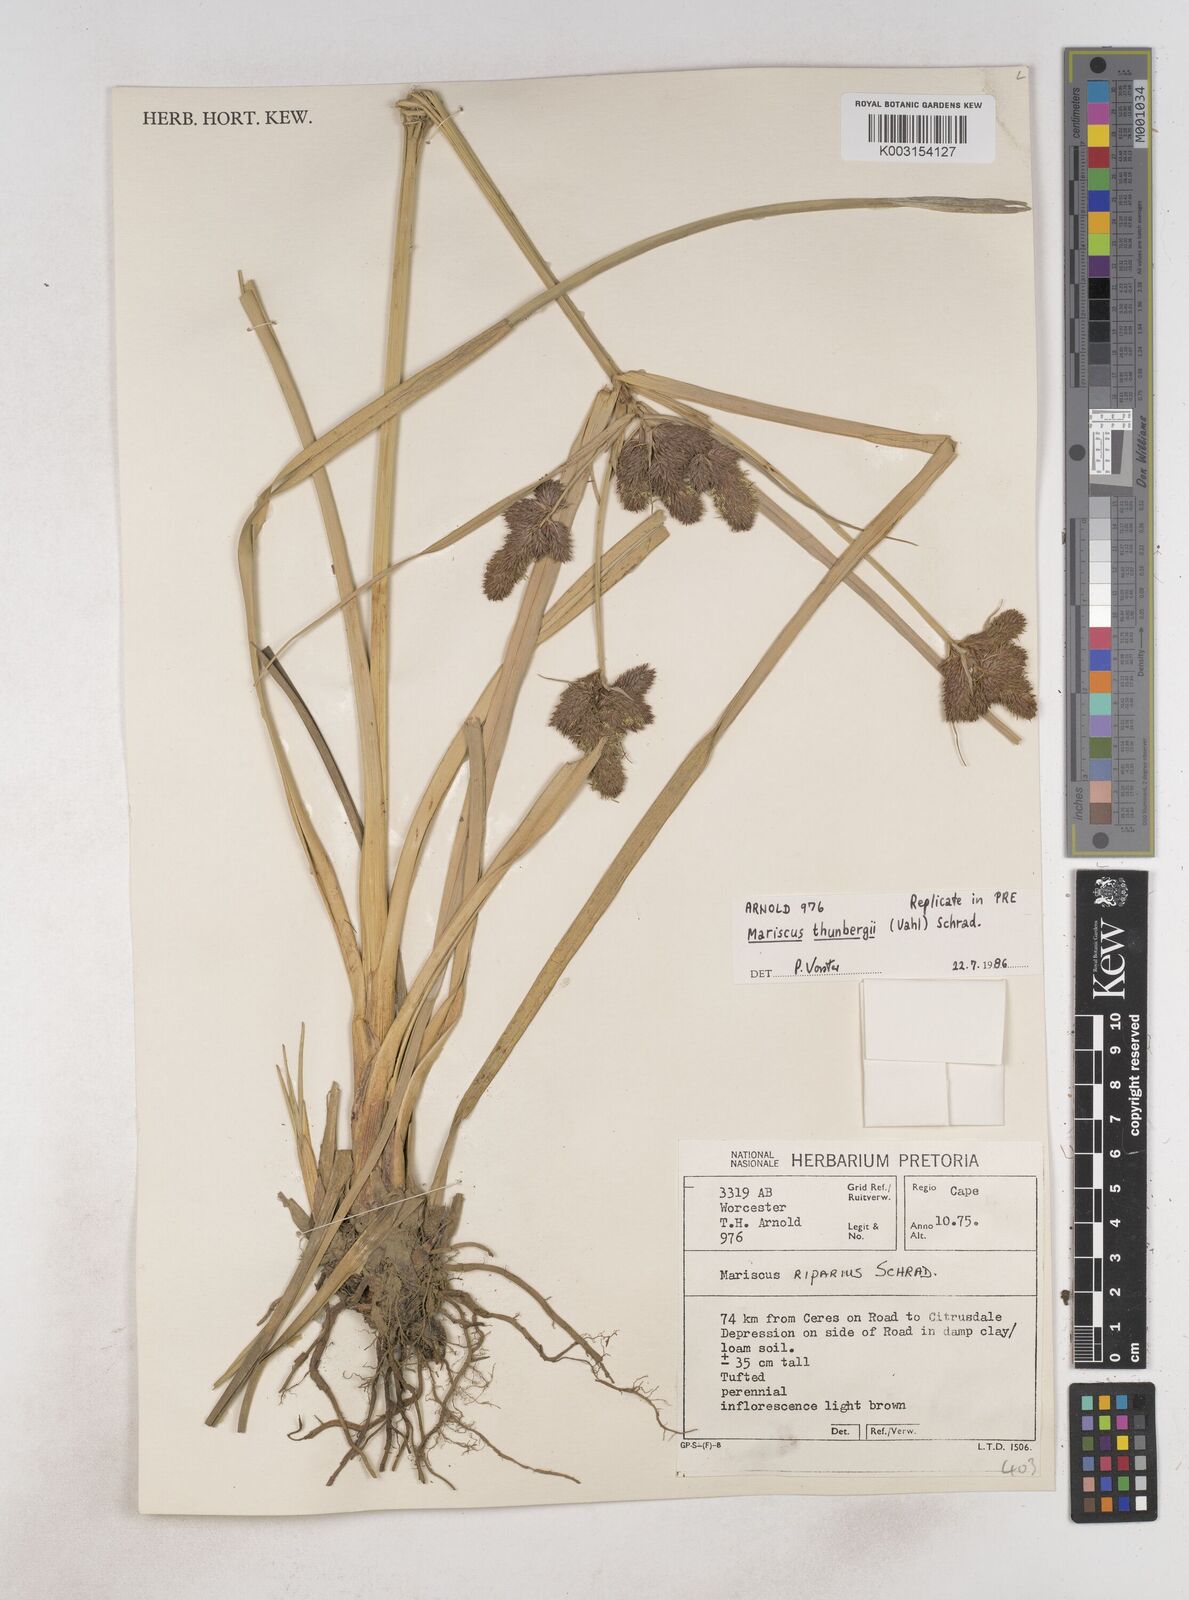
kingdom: Plantae
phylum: Tracheophyta
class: Liliopsida
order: Poales
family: Cyperaceae
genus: Cyperus
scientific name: Cyperus thunbergii
